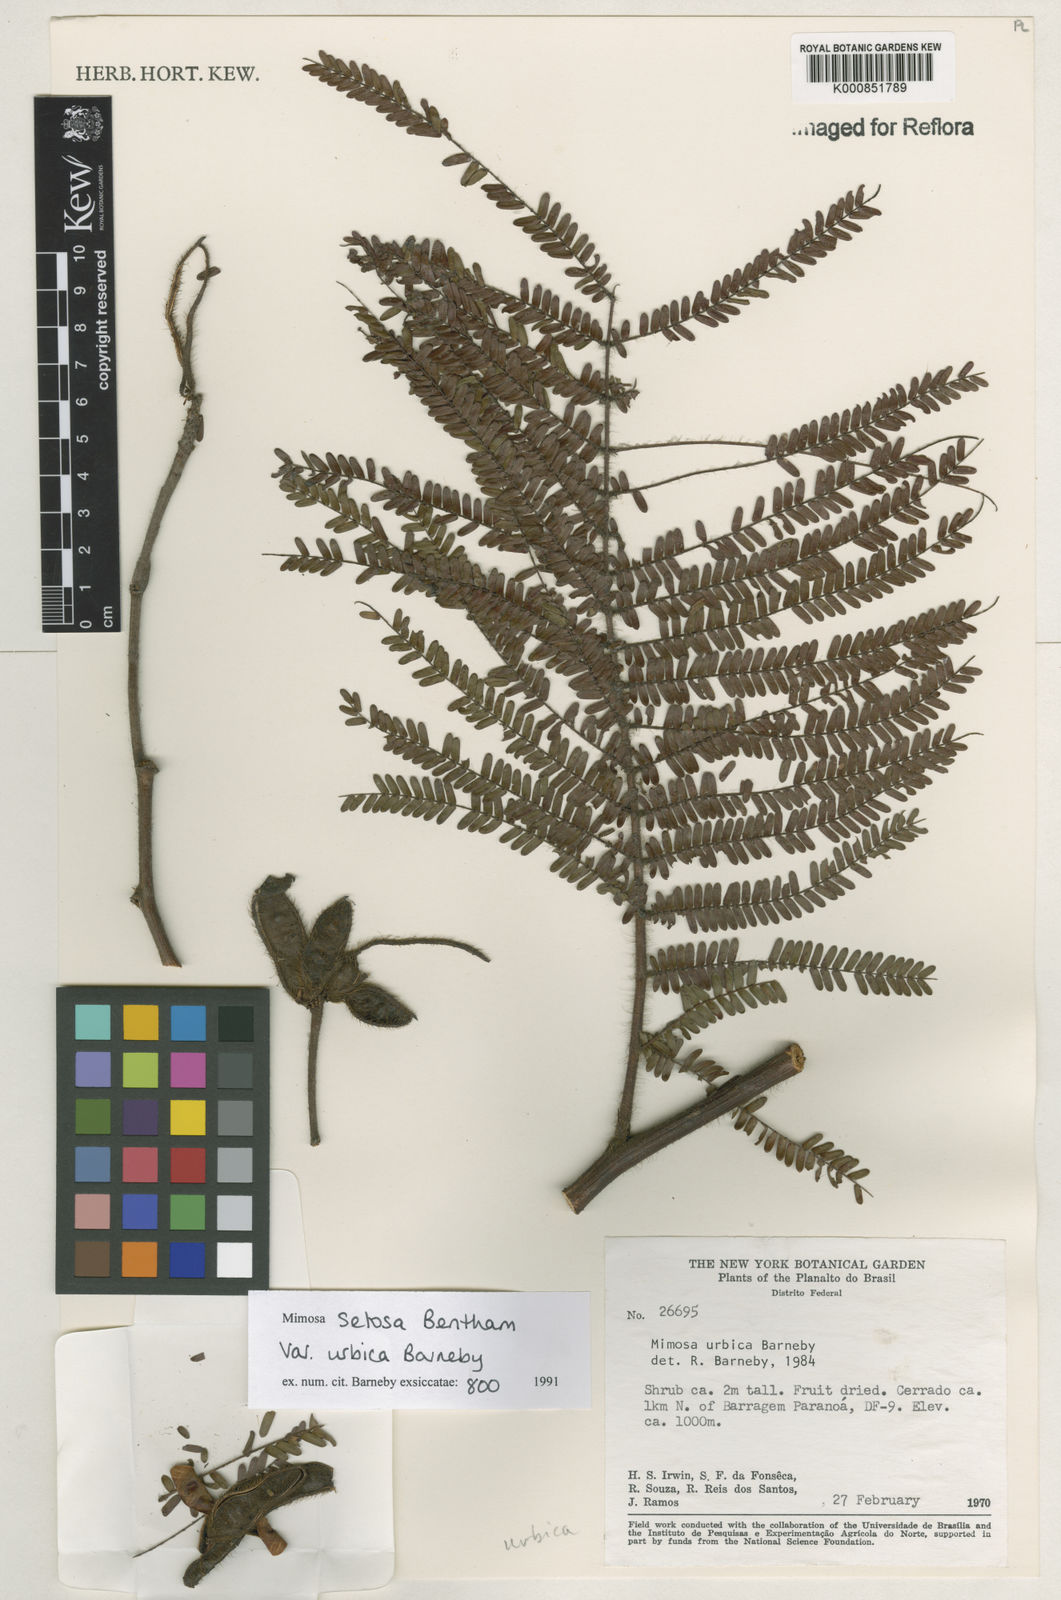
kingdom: Plantae
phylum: Tracheophyta
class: Magnoliopsida
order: Fabales
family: Fabaceae
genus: Mimosa
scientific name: Mimosa urbica
